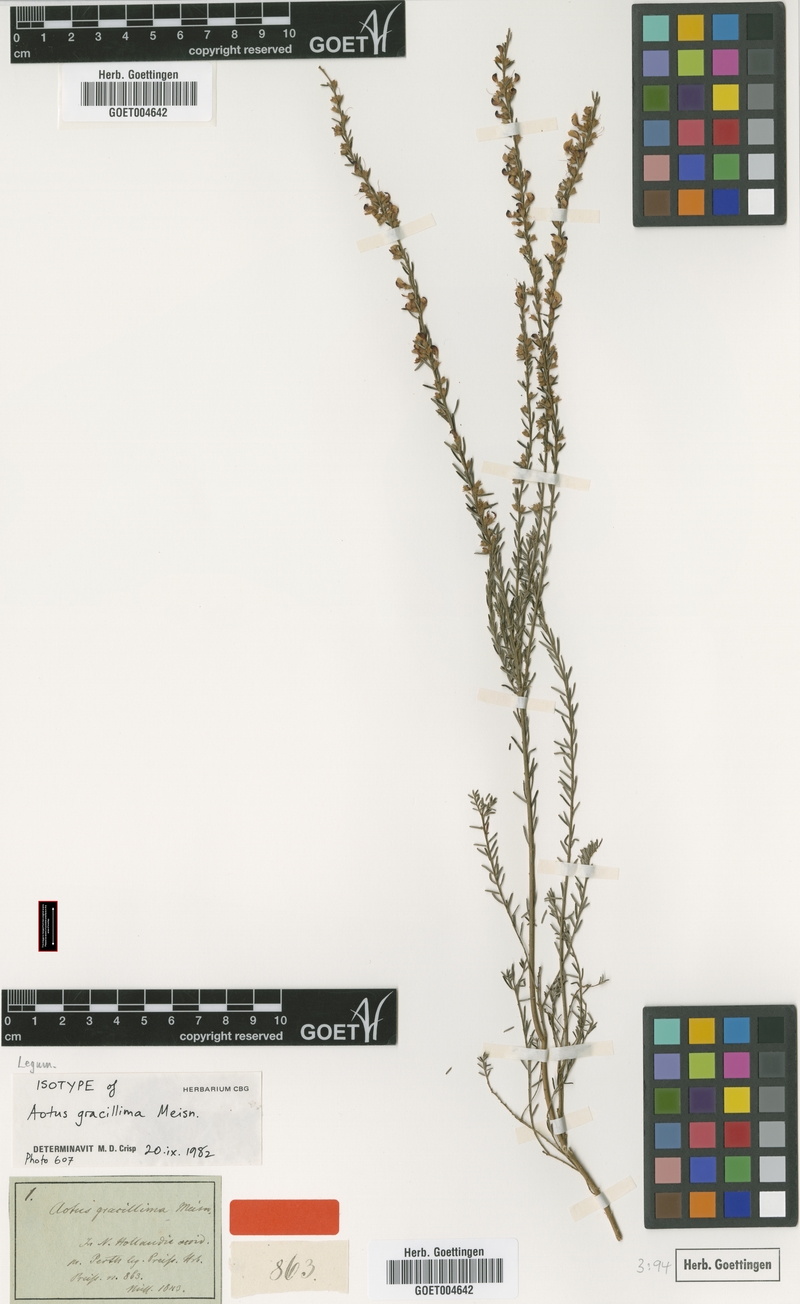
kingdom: Plantae
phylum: Tracheophyta
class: Magnoliopsida
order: Fabales
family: Fabaceae
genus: Aotus
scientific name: Aotus gracillima
